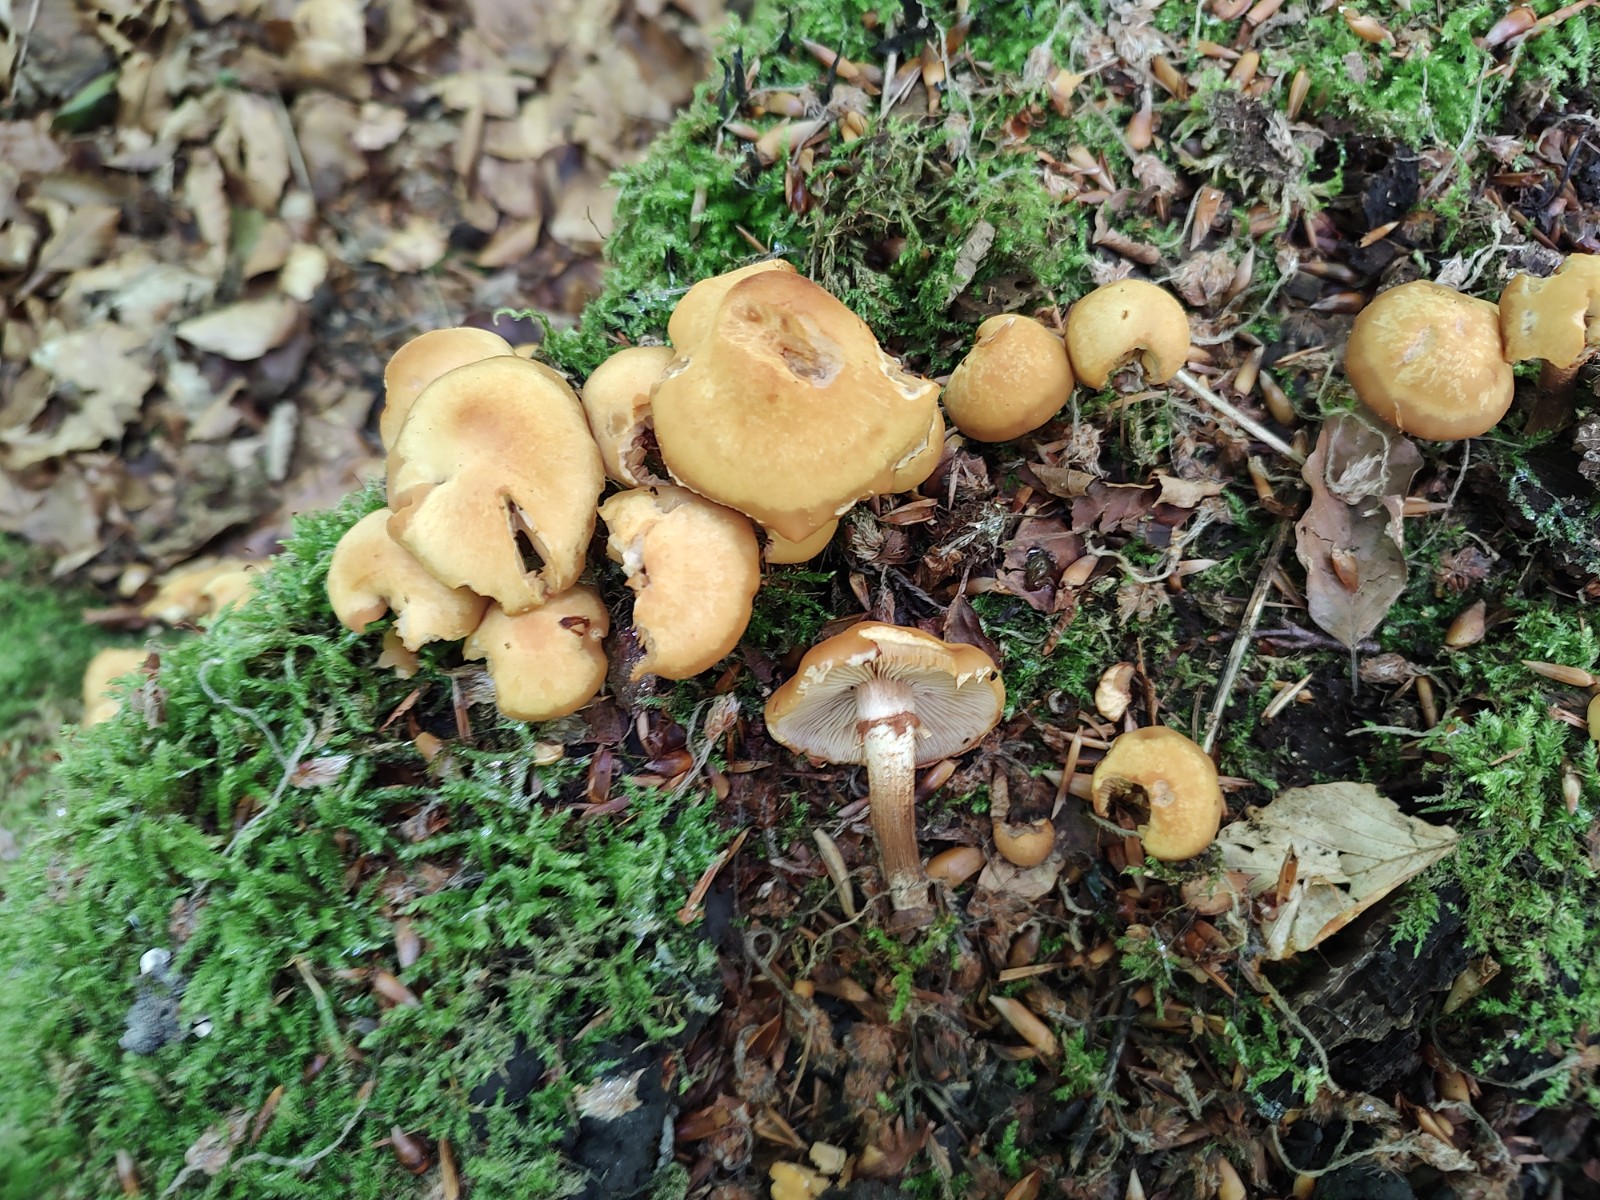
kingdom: Fungi
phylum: Basidiomycota
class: Agaricomycetes
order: Agaricales
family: Strophariaceae
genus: Kuehneromyces
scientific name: Kuehneromyces mutabilis
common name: foranderlig skælhat
